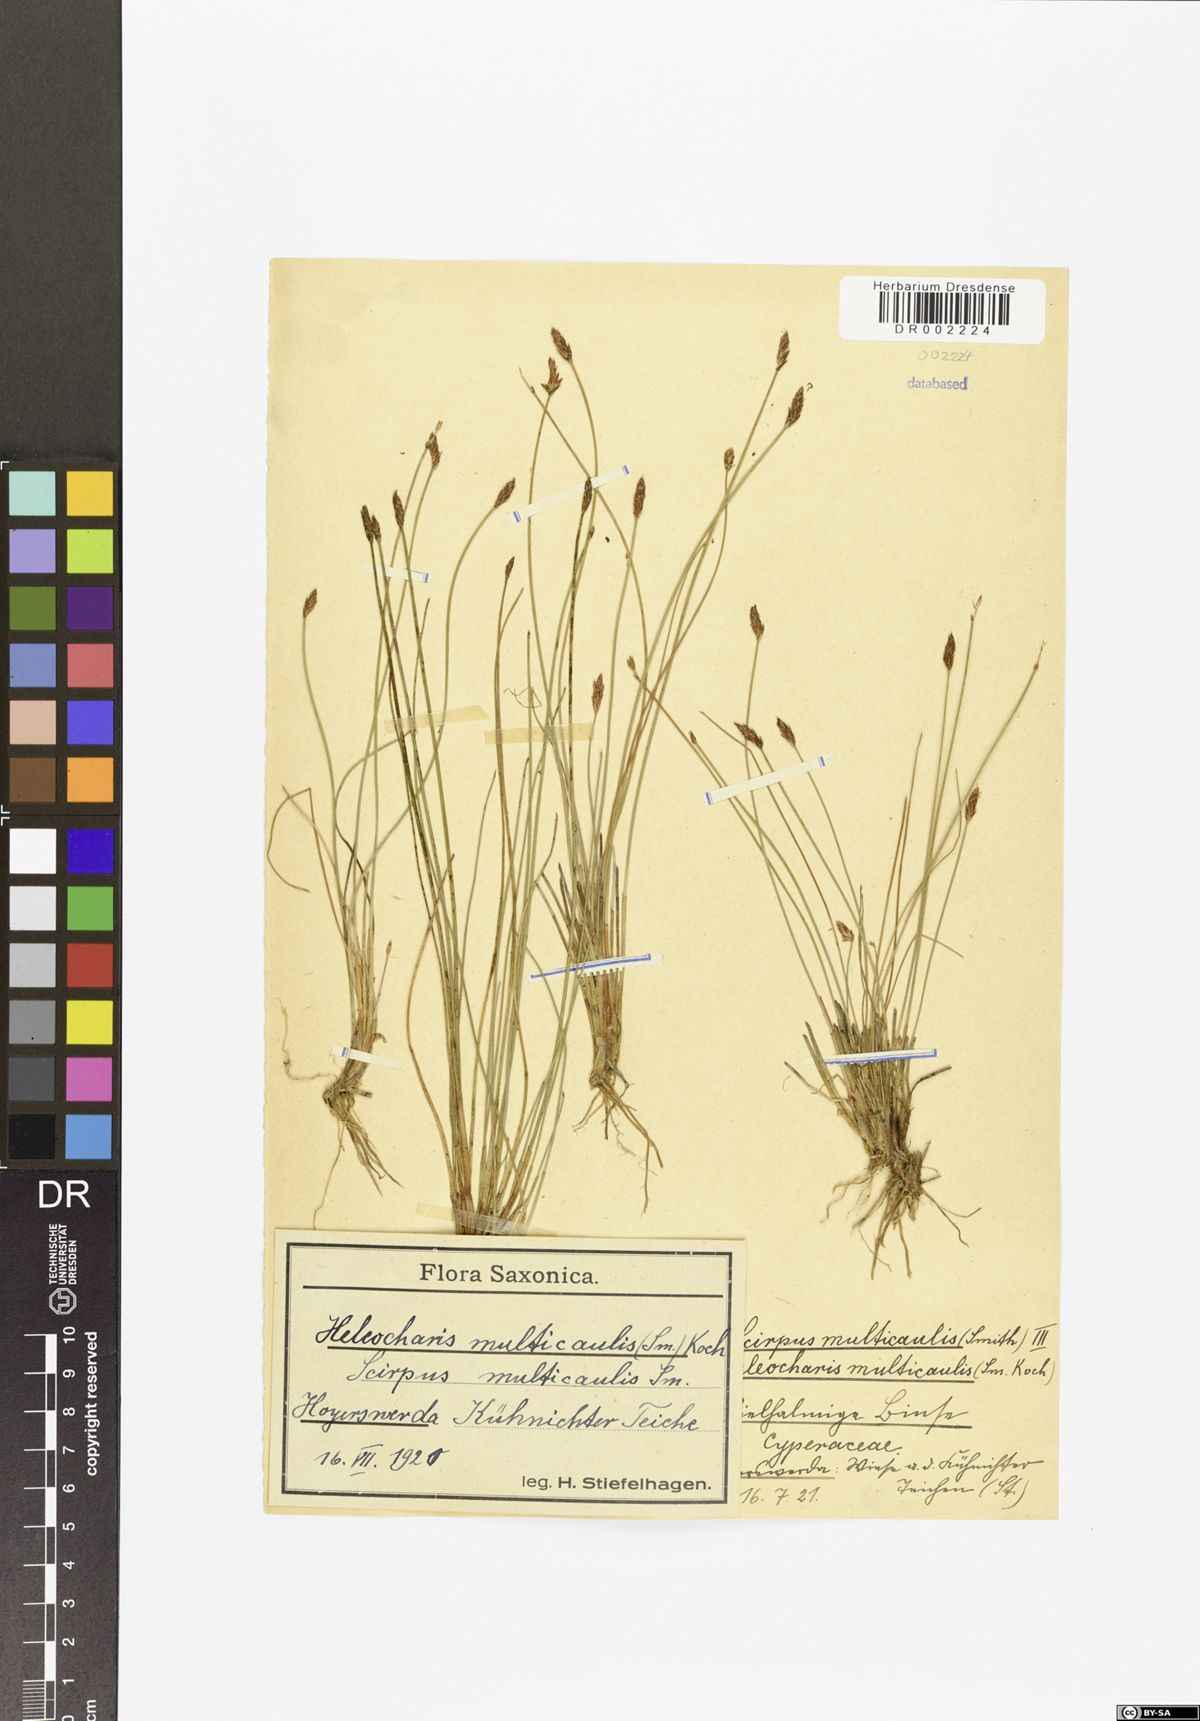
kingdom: Plantae
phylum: Tracheophyta
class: Liliopsida
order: Poales
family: Cyperaceae
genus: Eleocharis
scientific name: Eleocharis multicaulis
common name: Many-stalked spike-rush
